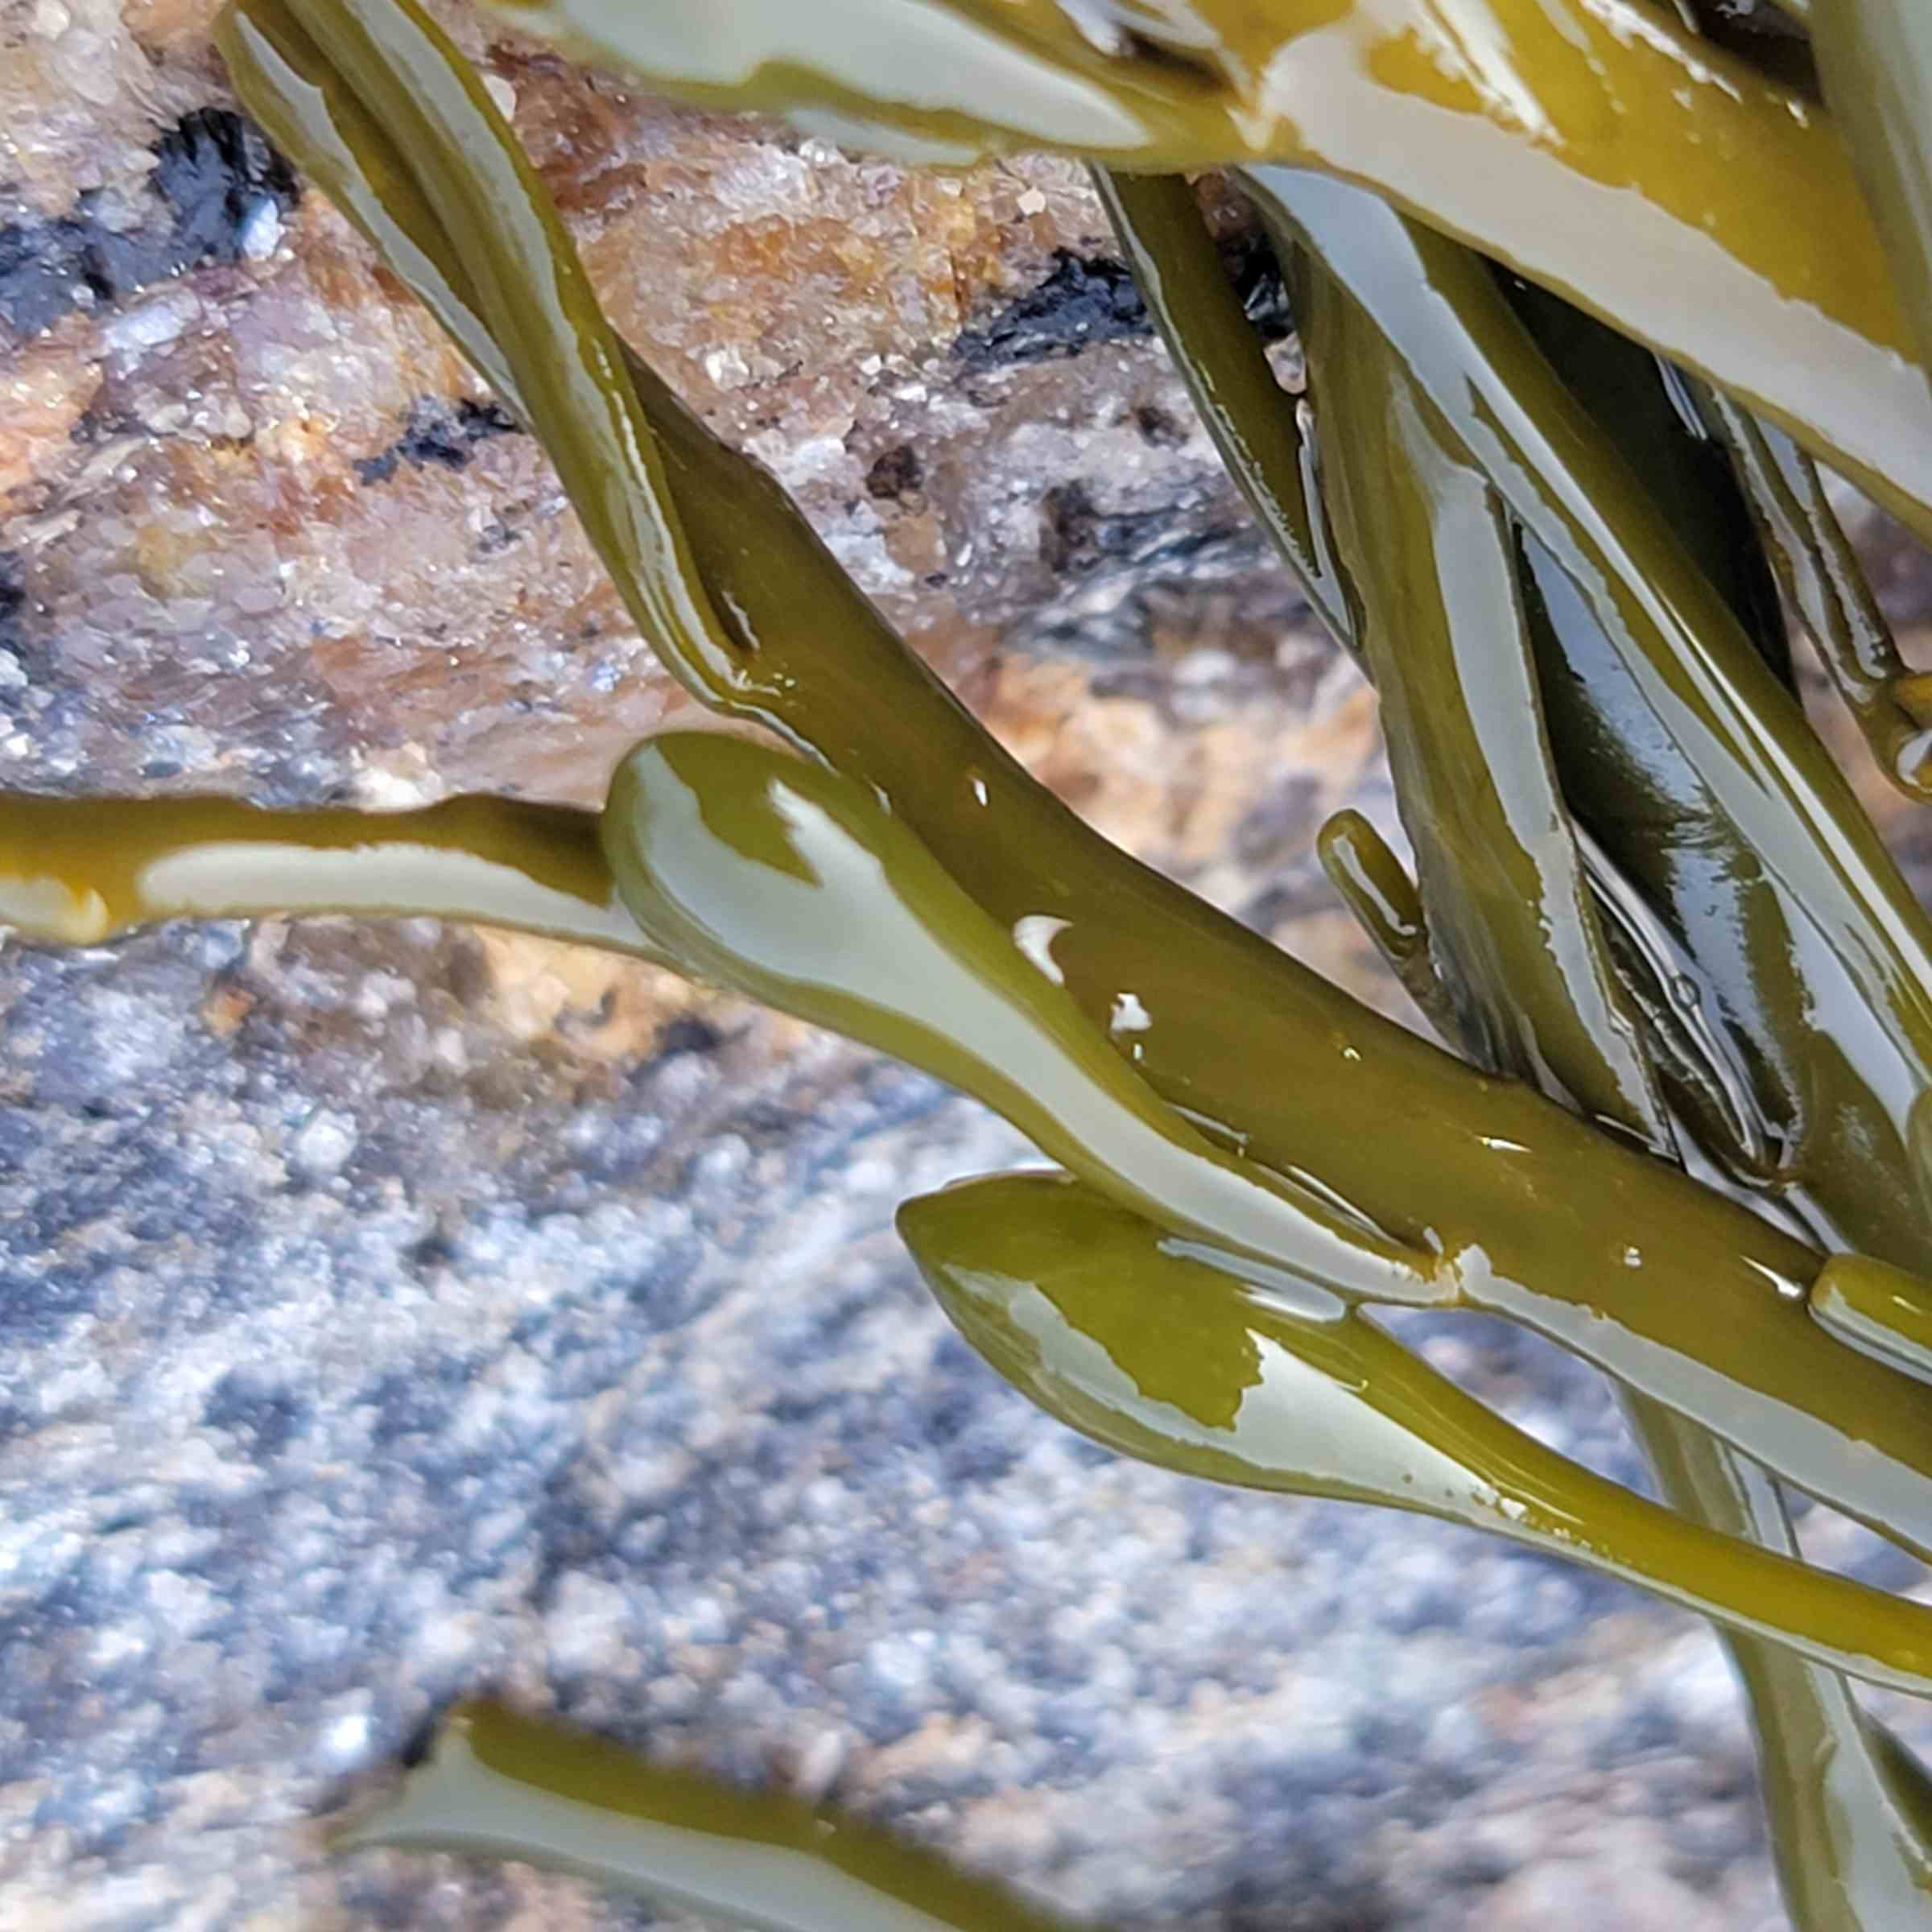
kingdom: Chromista
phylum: Ochrophyta
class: Phaeophyceae
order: Fucales
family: Fucaceae
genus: Ascophyllum
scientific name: Ascophyllum nodosum
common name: Rockweed
